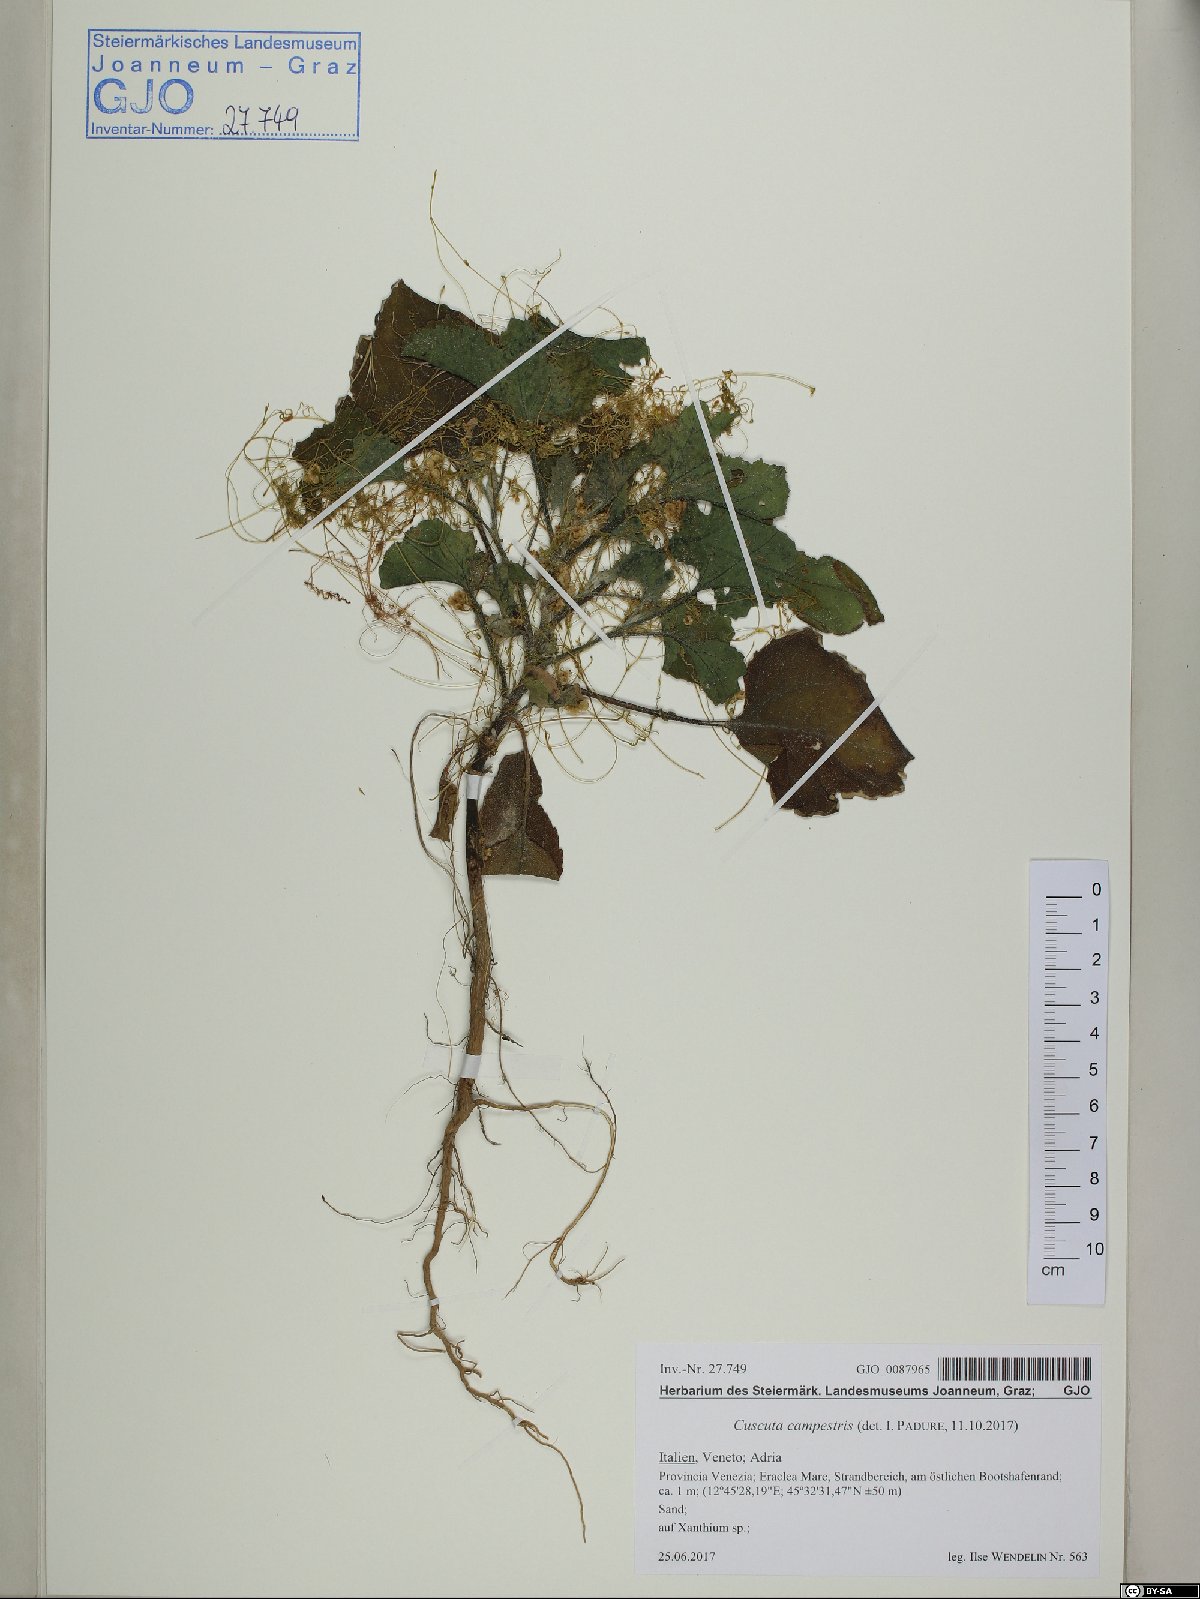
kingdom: Plantae
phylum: Tracheophyta
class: Magnoliopsida
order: Solanales
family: Convolvulaceae
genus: Cuscuta
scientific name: Cuscuta campestris
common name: Yellow dodder
